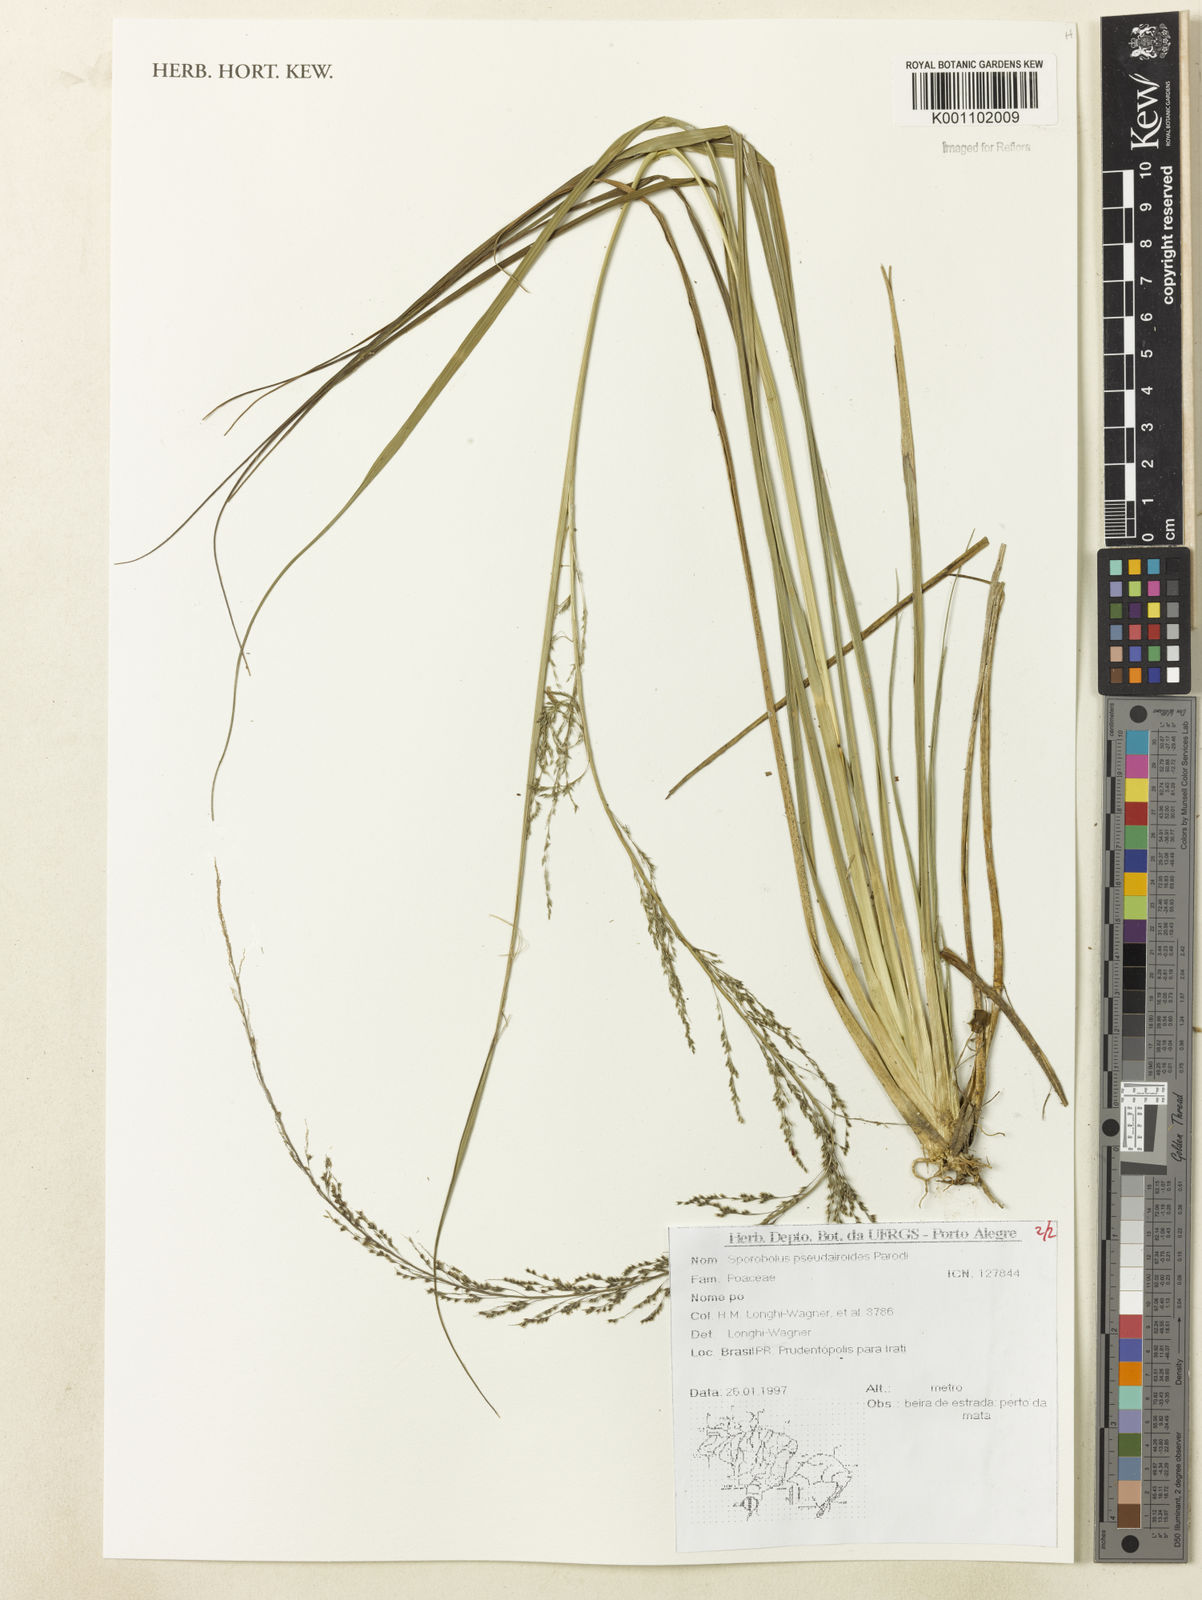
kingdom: Plantae
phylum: Tracheophyta
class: Liliopsida
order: Poales
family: Poaceae
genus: Sporobolus
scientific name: Sporobolus pseudairoides
